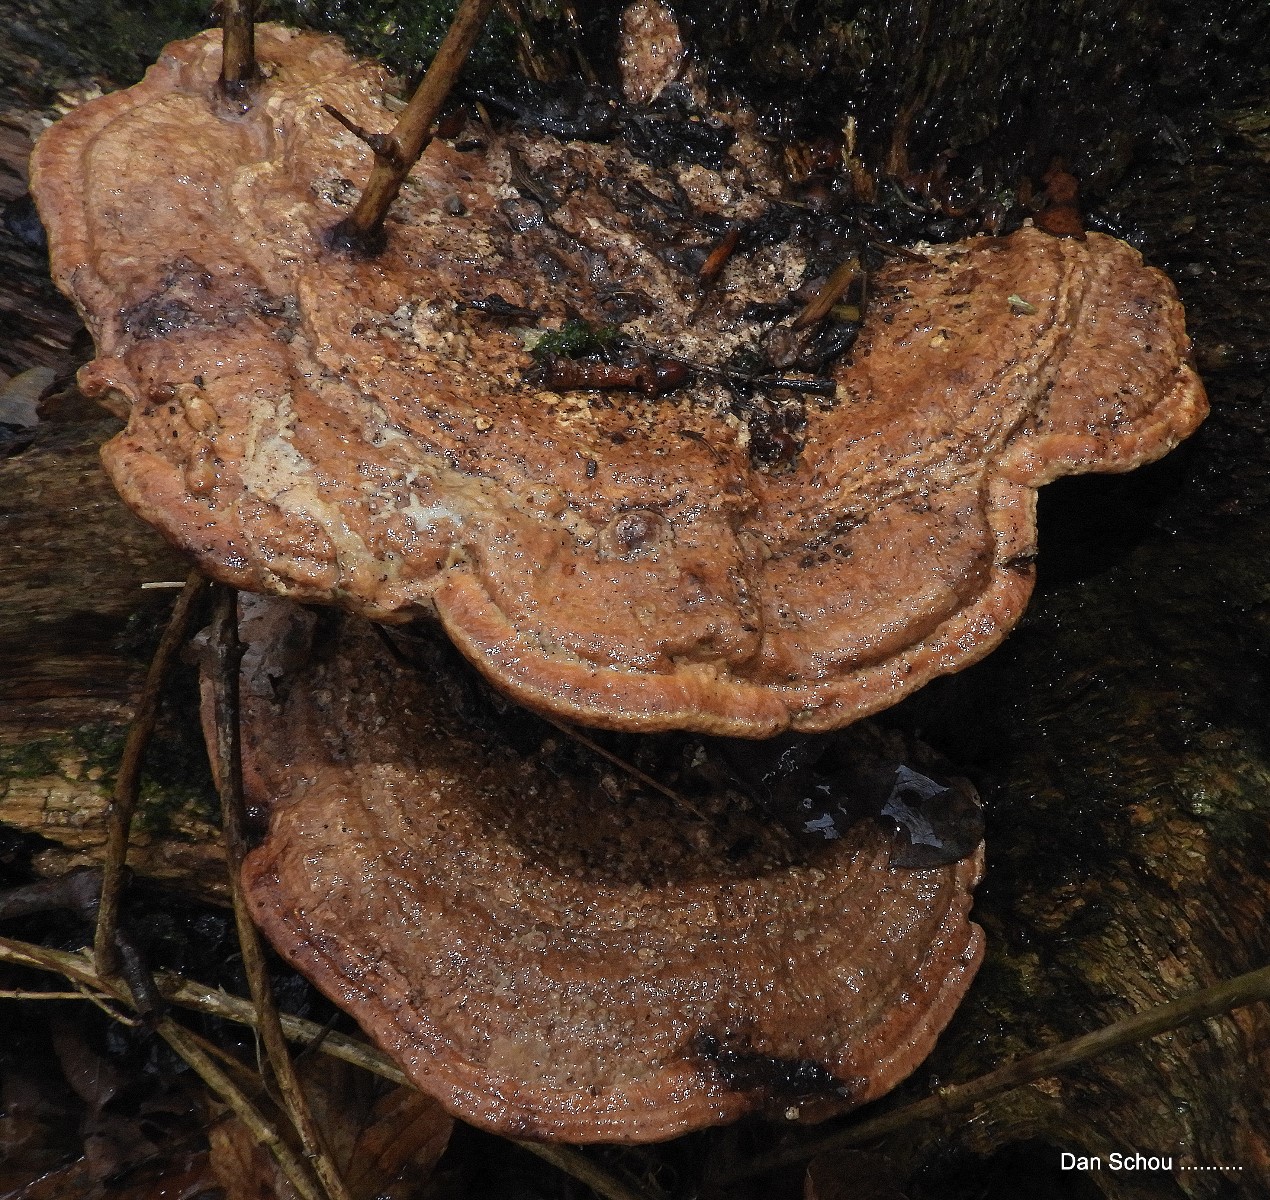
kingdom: Fungi
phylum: Basidiomycota
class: Agaricomycetes
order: Polyporales
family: Fomitopsidaceae
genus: Daedalea
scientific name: Daedalea quercina
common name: ege-labyrintsvamp
